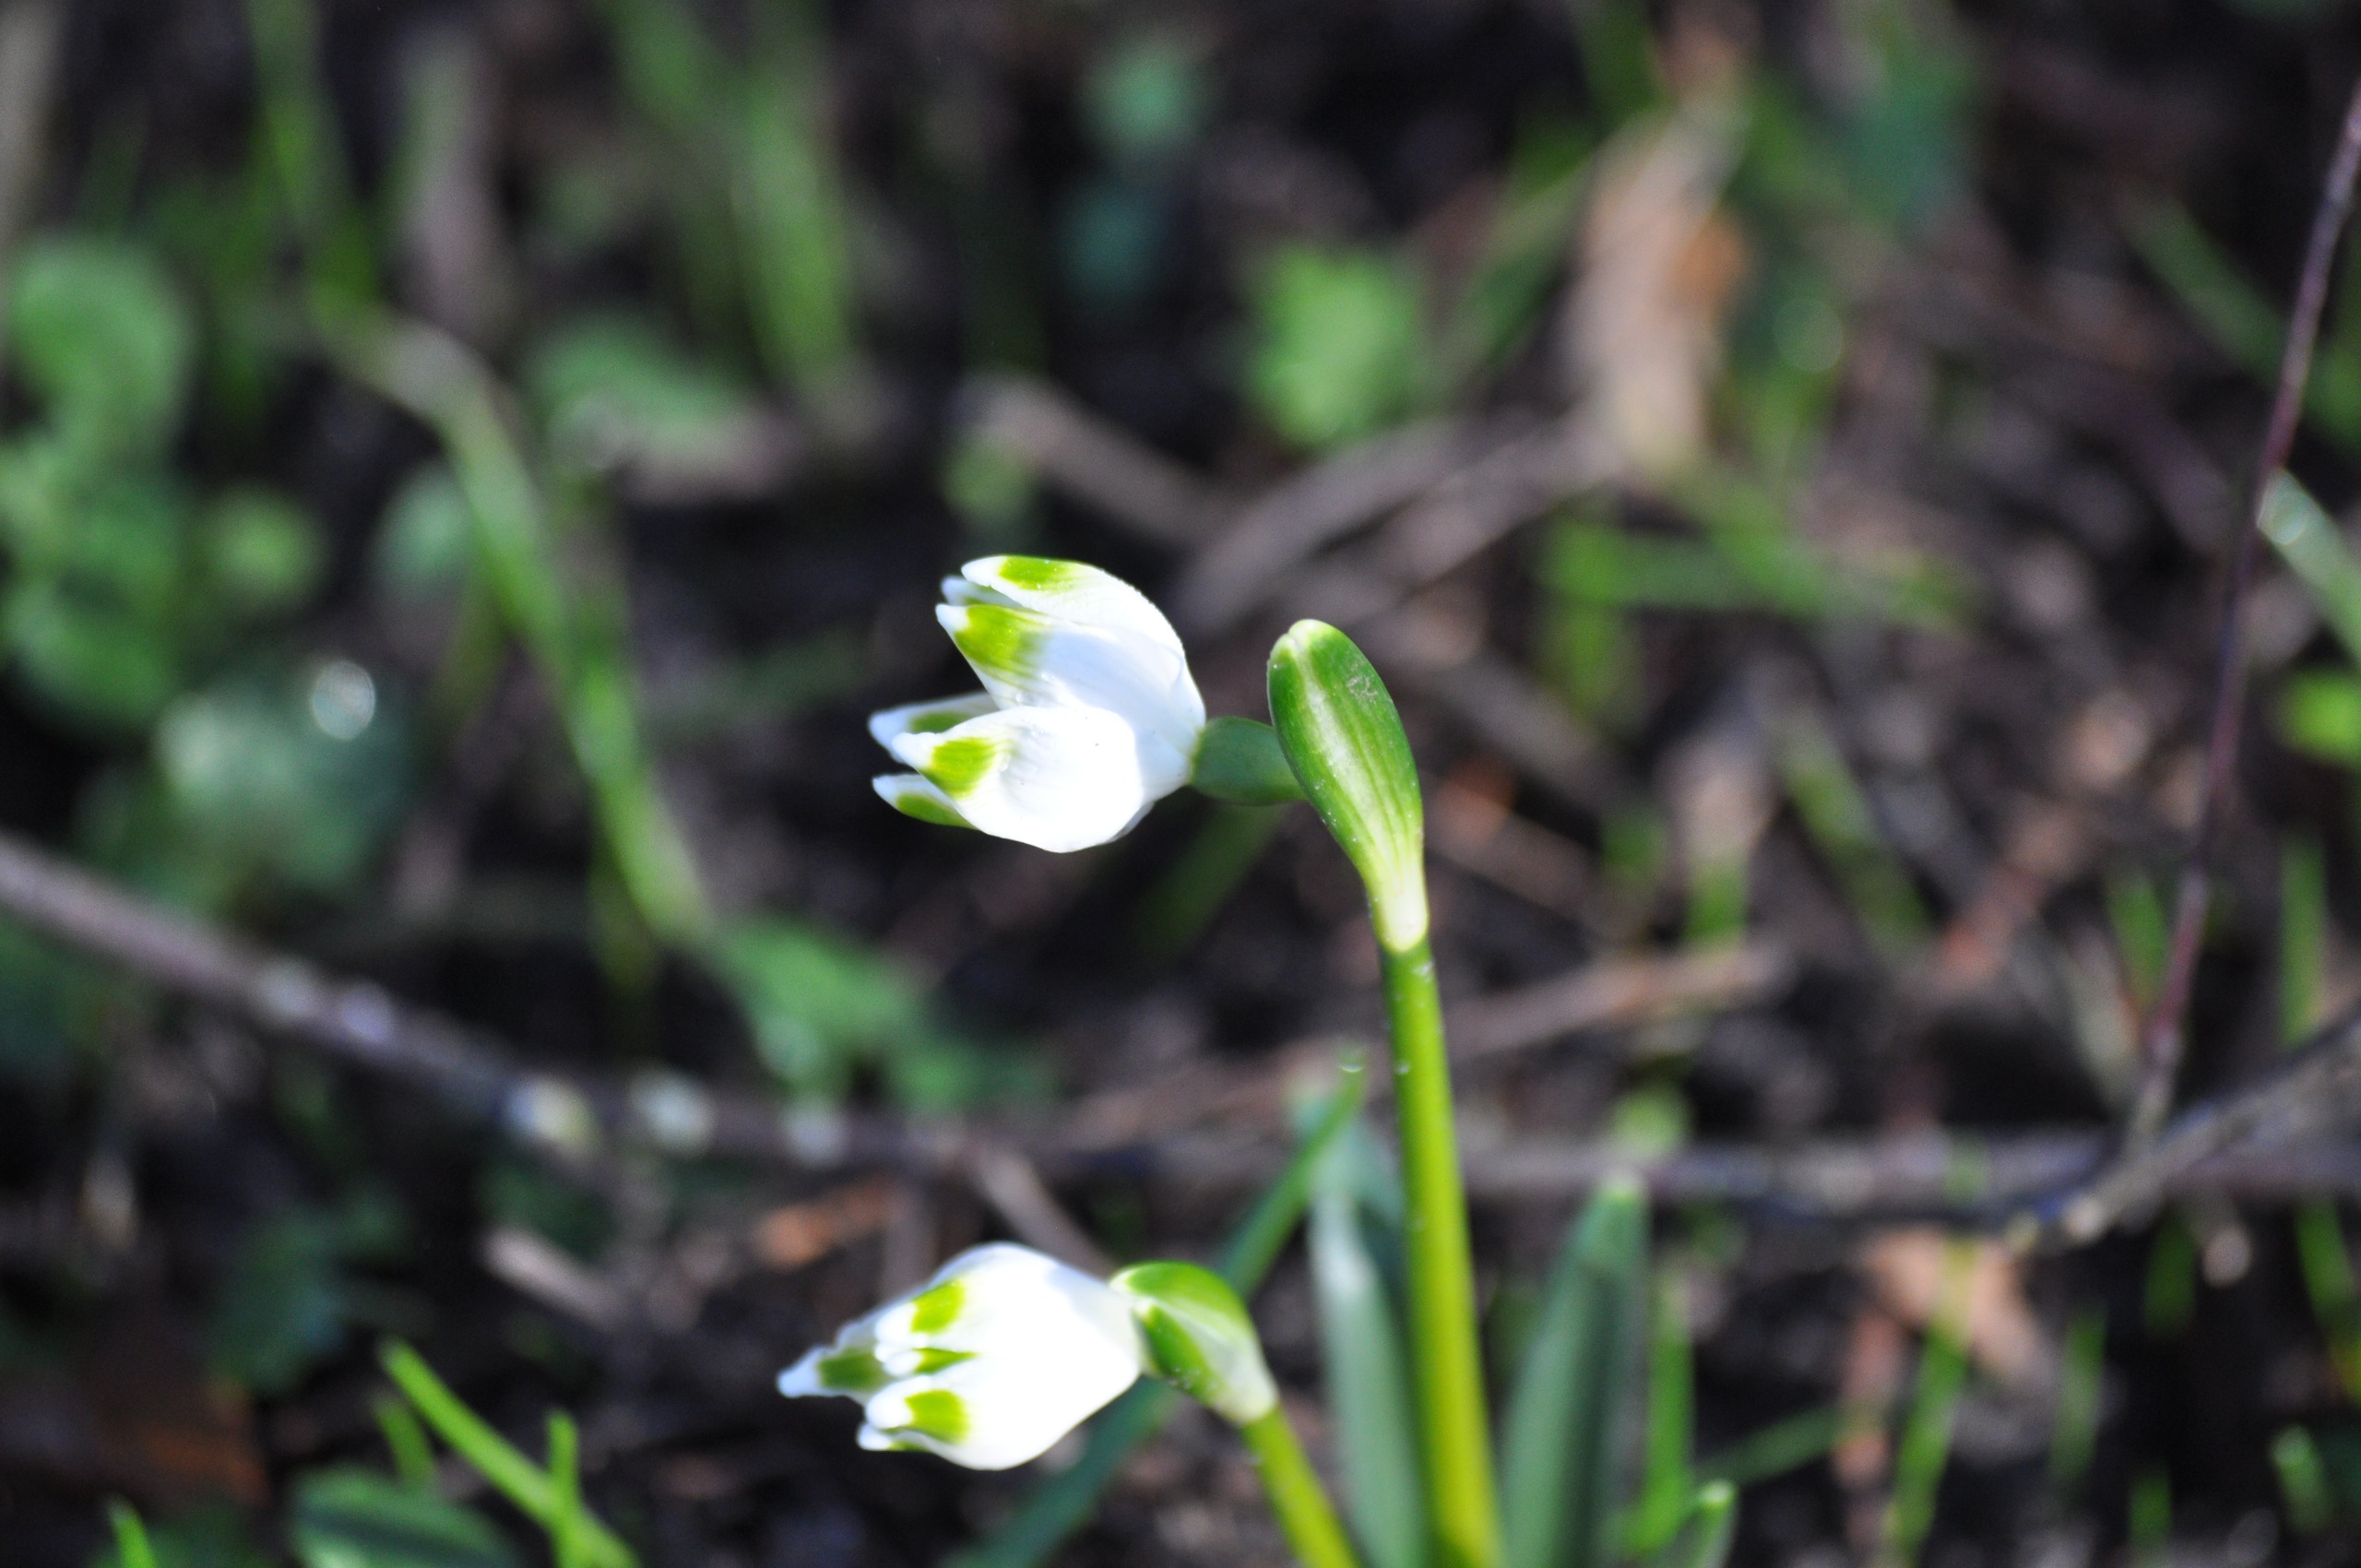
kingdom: Plantae
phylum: Tracheophyta
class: Liliopsida
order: Asparagales
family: Amaryllidaceae
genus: Leucojum
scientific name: Leucojum vernum
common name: Dorthealilje
